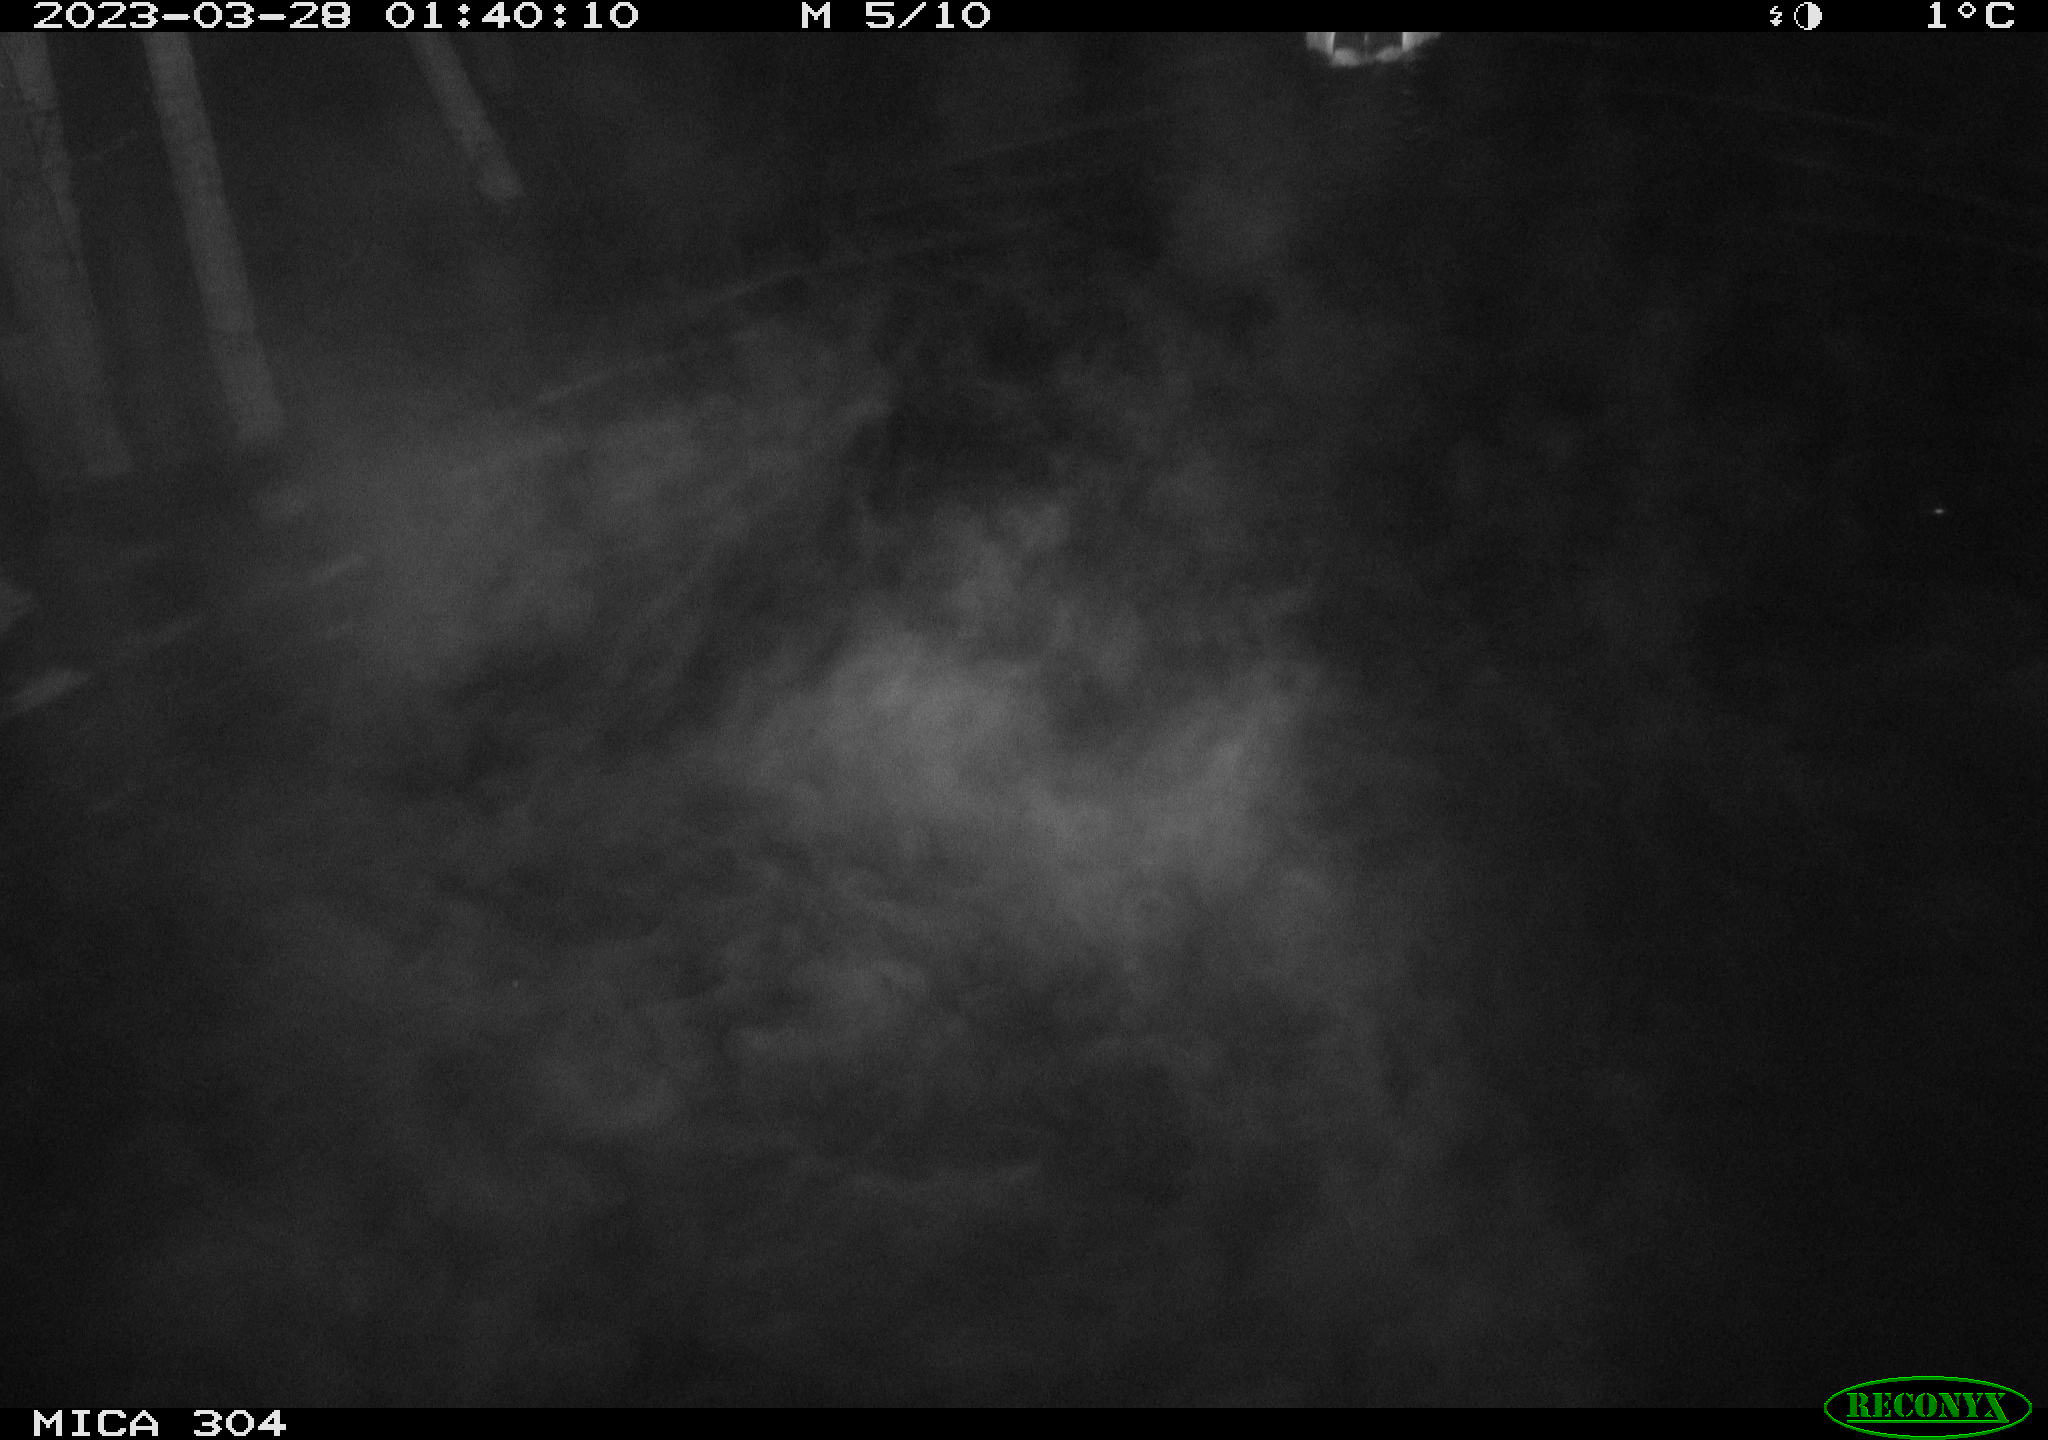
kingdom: Animalia
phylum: Chordata
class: Aves
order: Anseriformes
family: Anatidae
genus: Anas
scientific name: Anas
